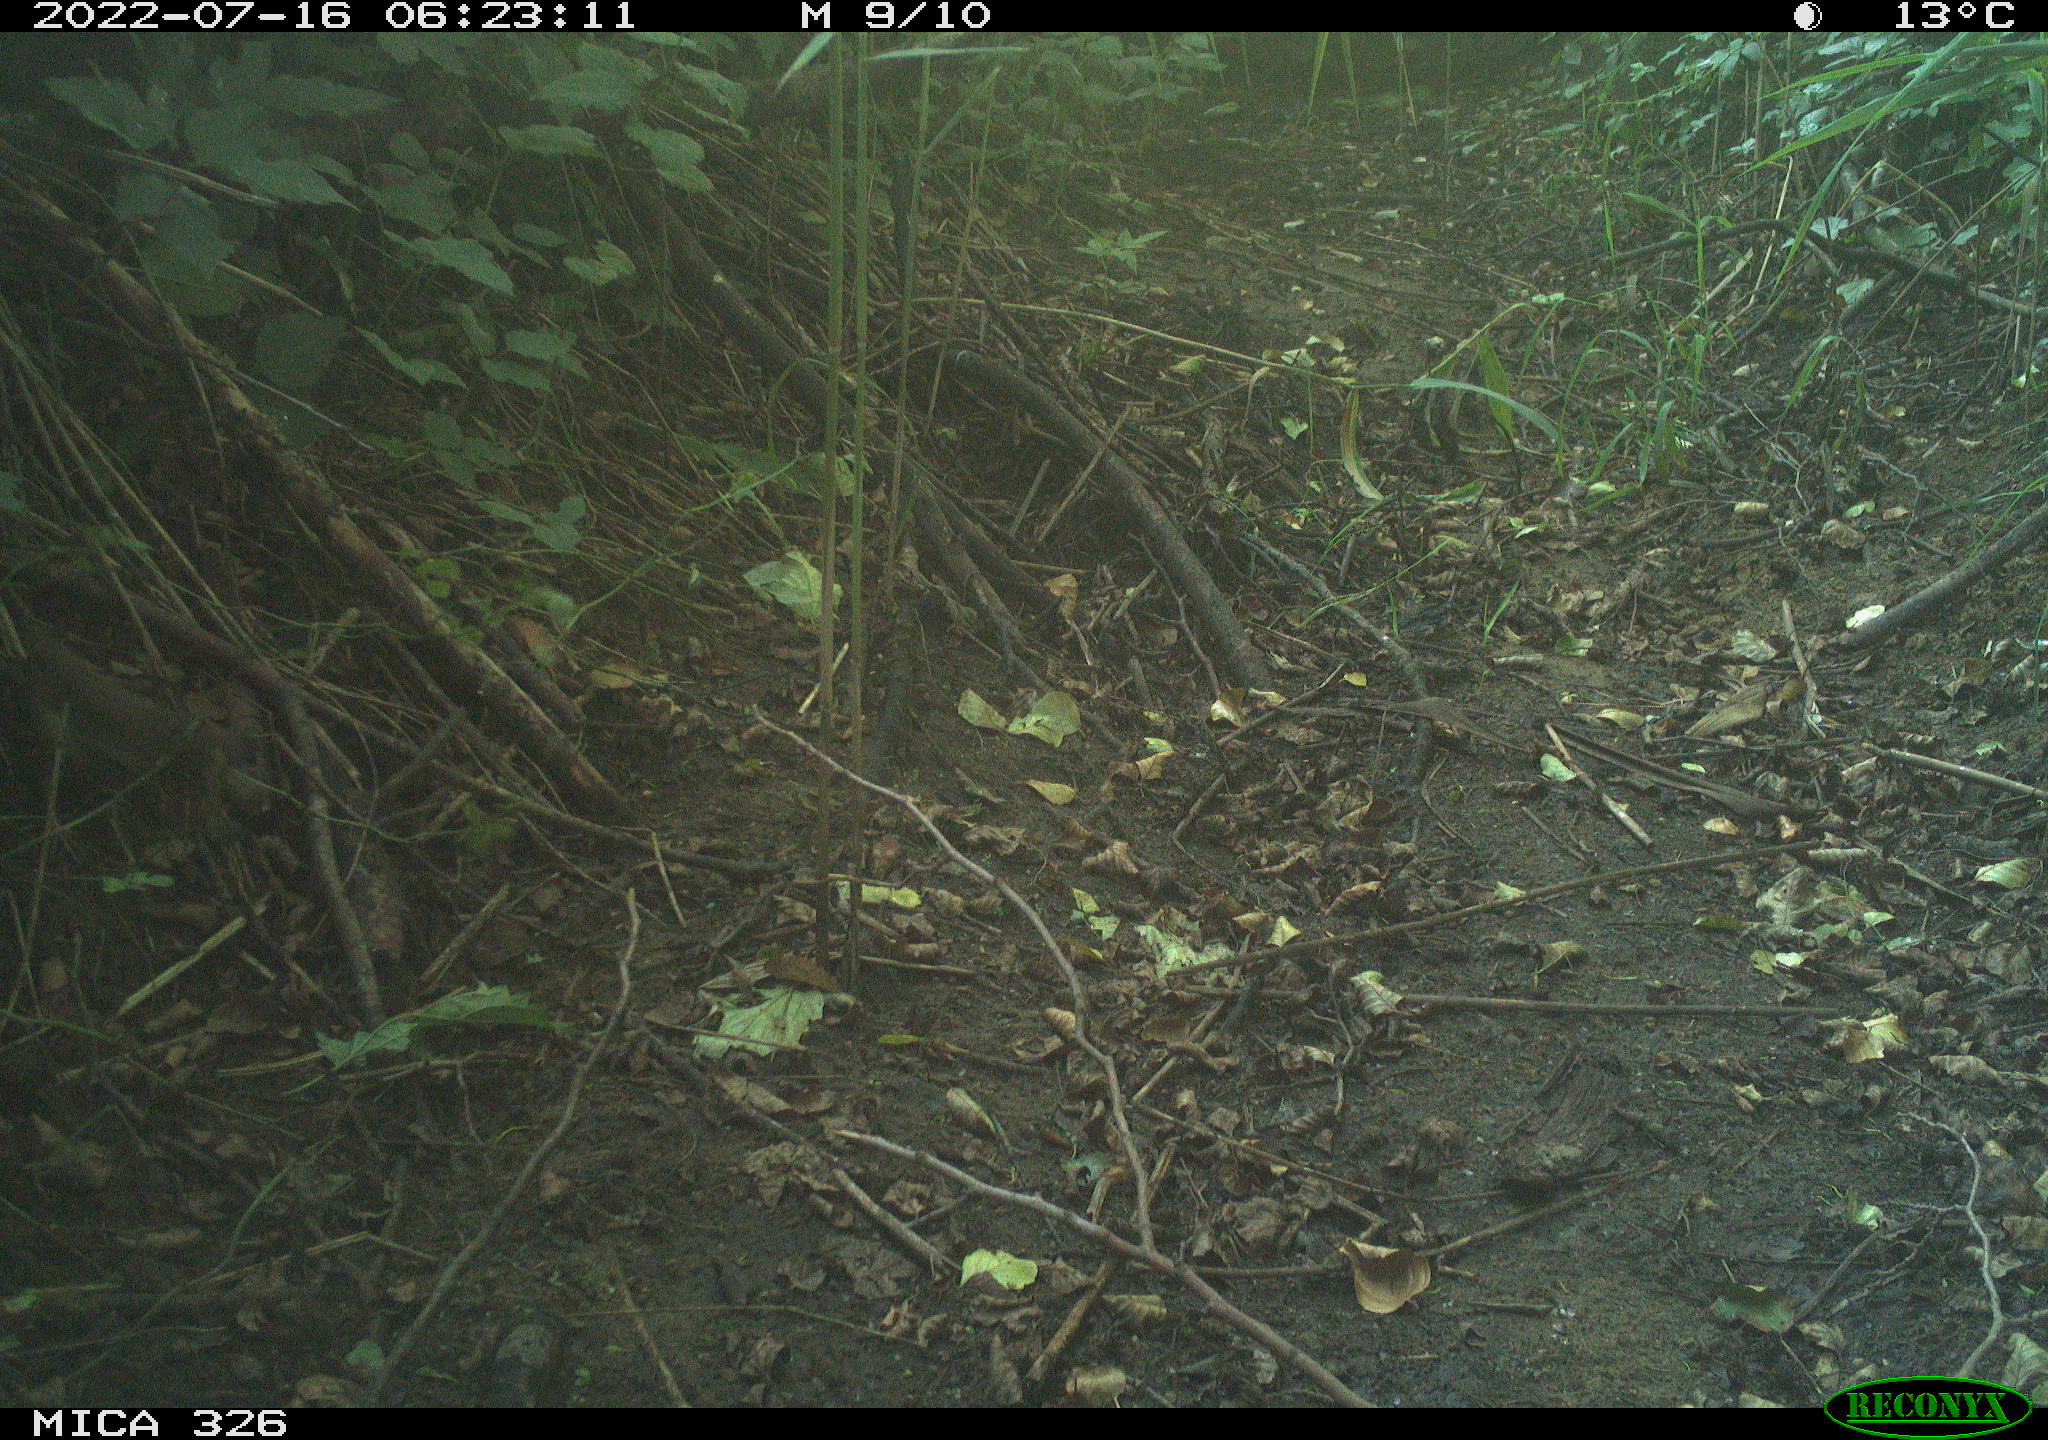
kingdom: Animalia
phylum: Chordata
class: Aves
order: Passeriformes
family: Turdidae
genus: Turdus
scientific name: Turdus philomelos
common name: Song thrush
